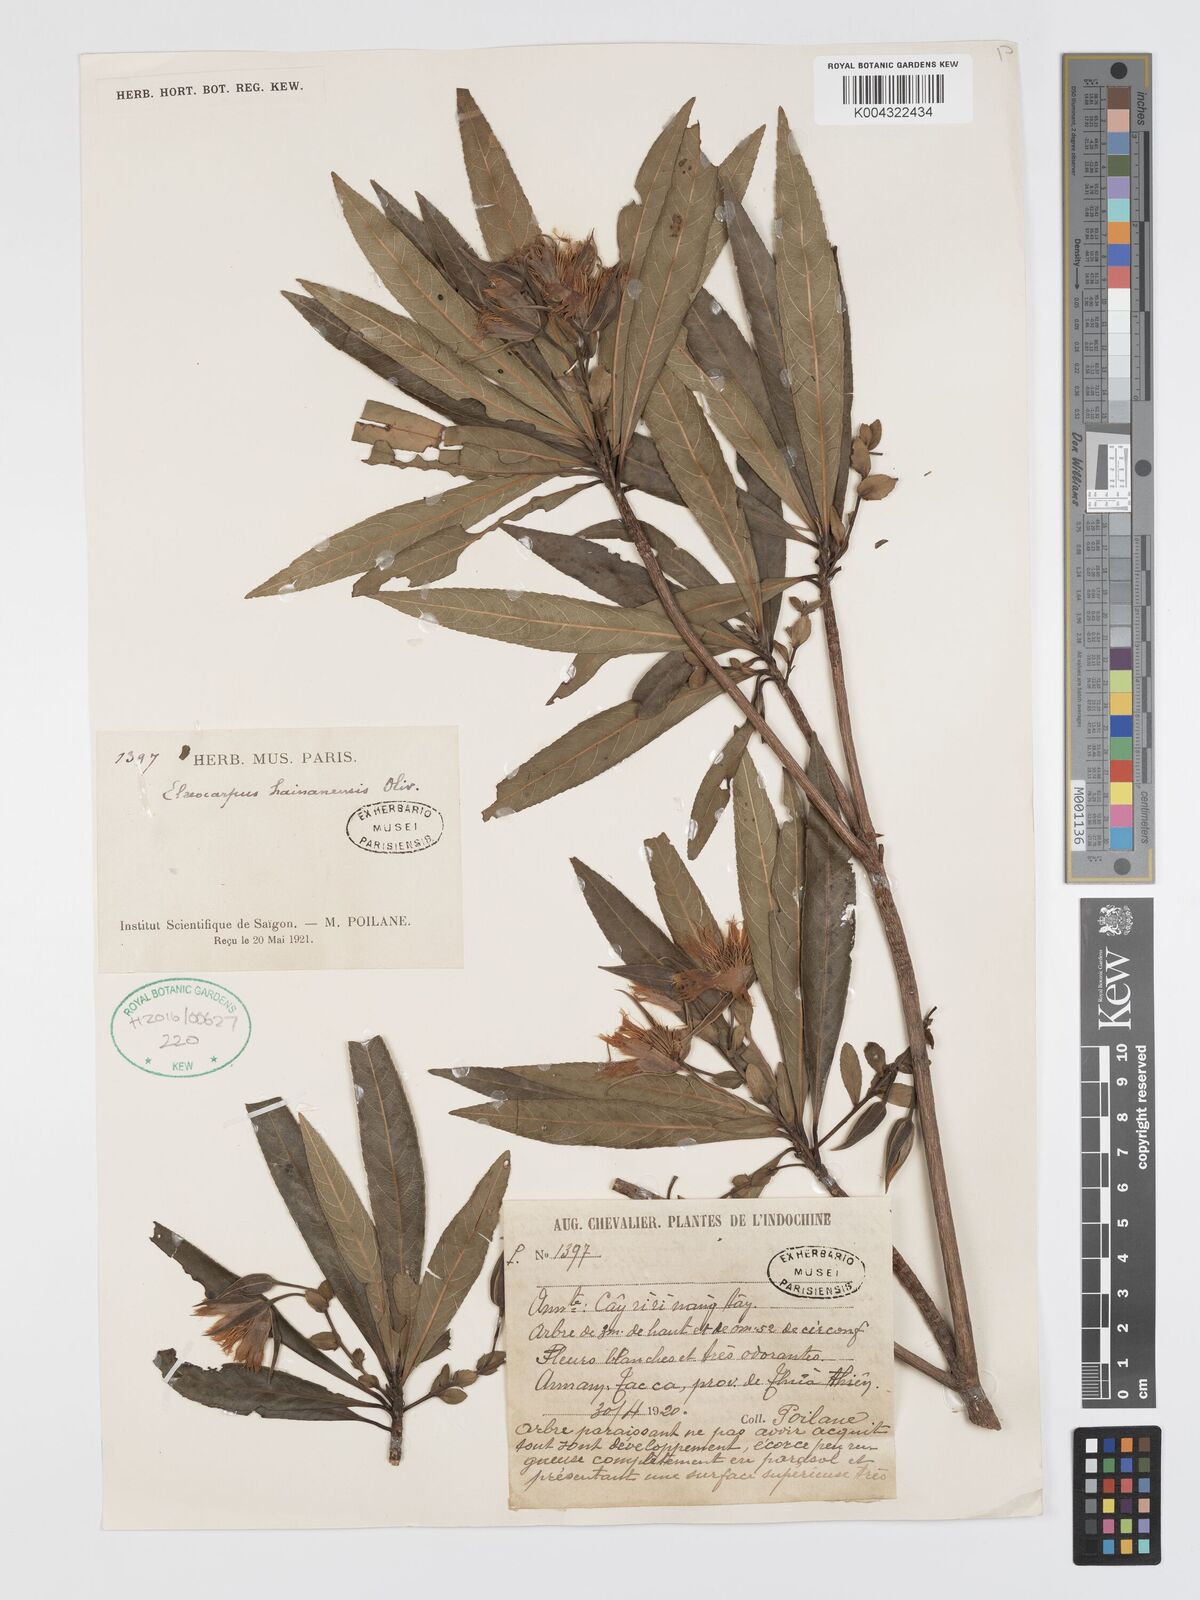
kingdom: Plantae
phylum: Tracheophyta
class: Magnoliopsida
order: Oxalidales
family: Elaeocarpaceae
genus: Elaeocarpus
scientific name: Elaeocarpus hainanensis
